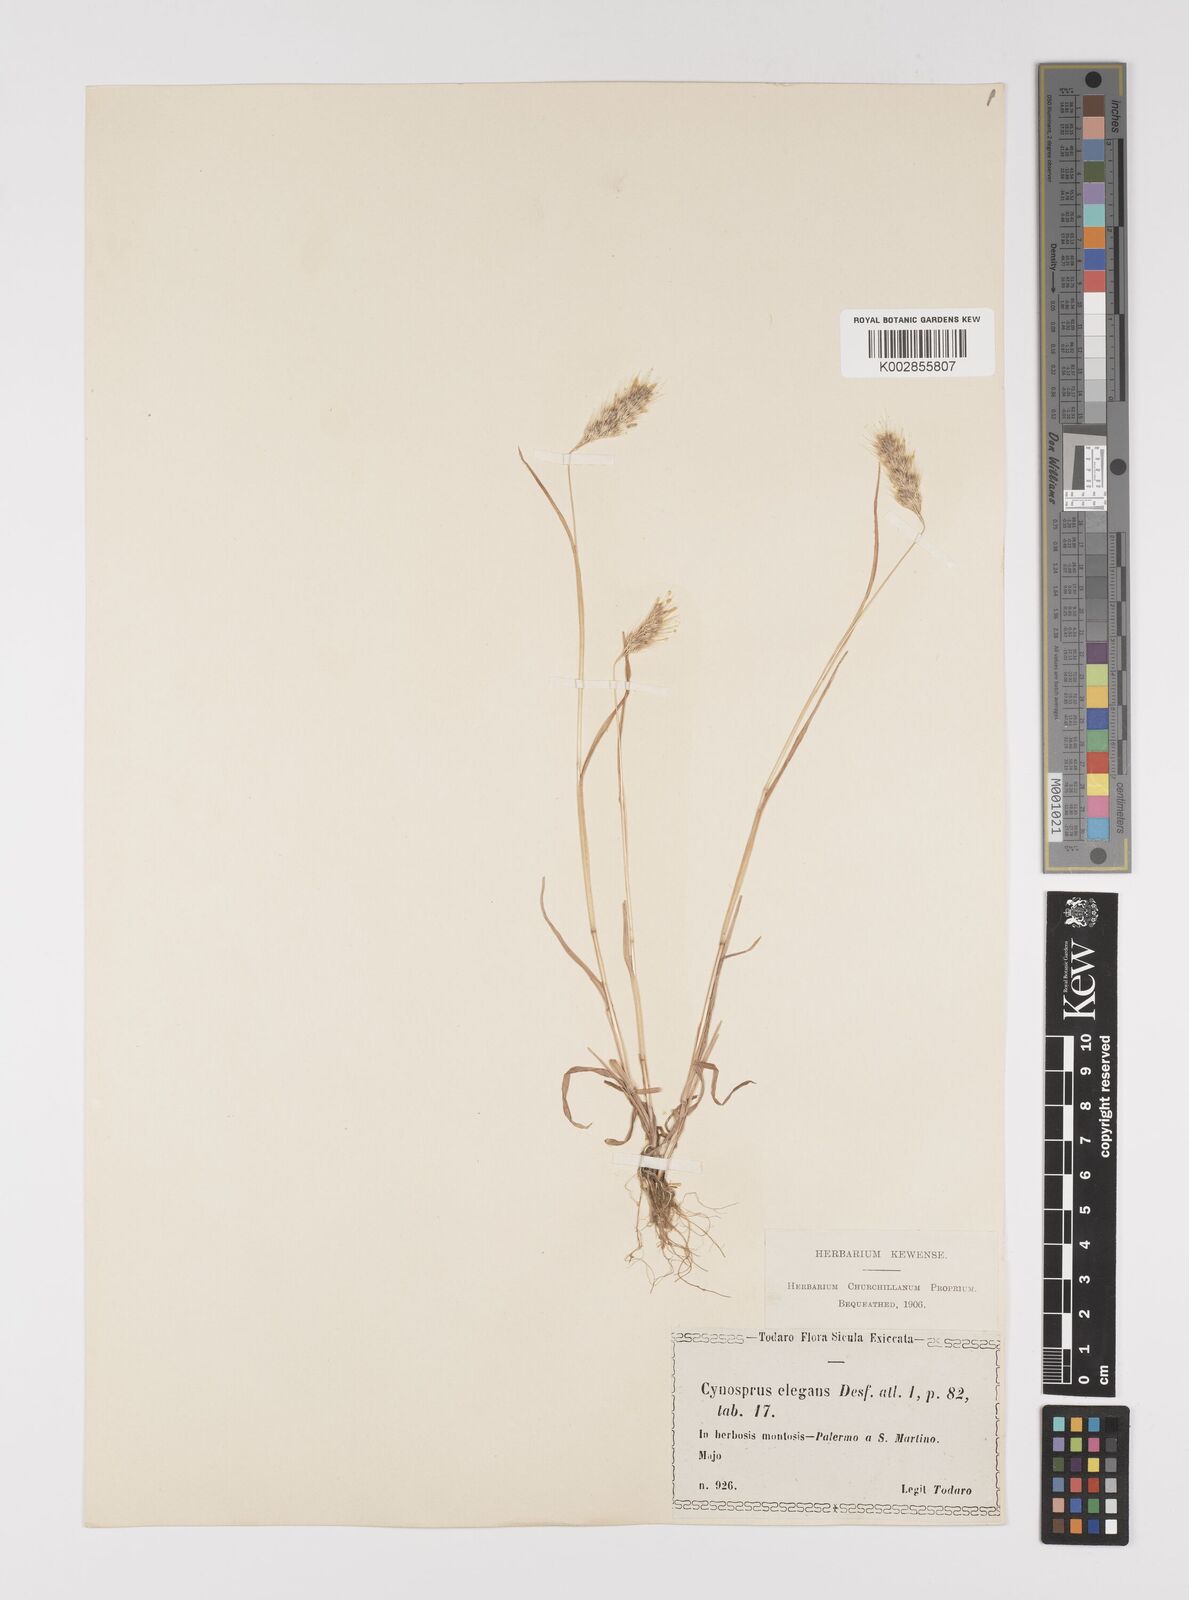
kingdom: Plantae
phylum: Tracheophyta
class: Liliopsida
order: Poales
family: Poaceae
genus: Cynosurus
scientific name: Cynosurus elegans
